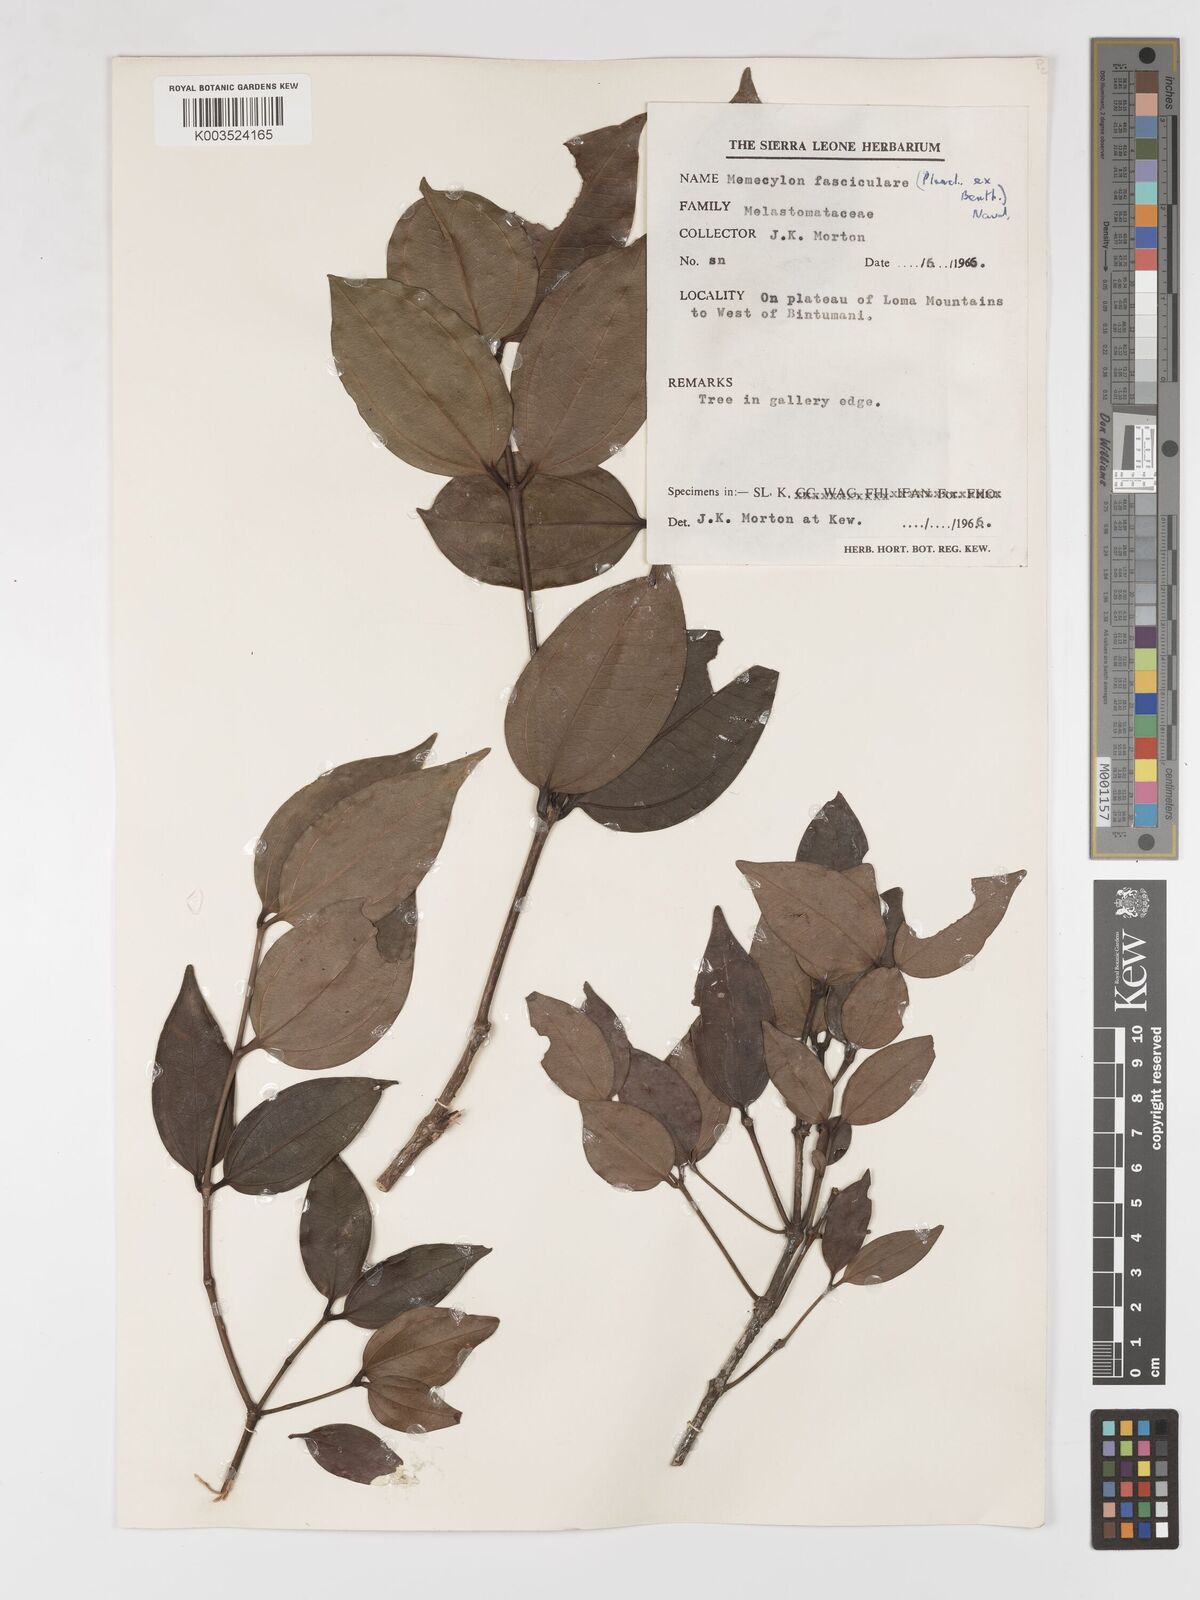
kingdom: Plantae
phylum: Tracheophyta
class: Magnoliopsida
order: Myrtales
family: Melastomataceae
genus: Warneckea
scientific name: Warneckea fascicularis
